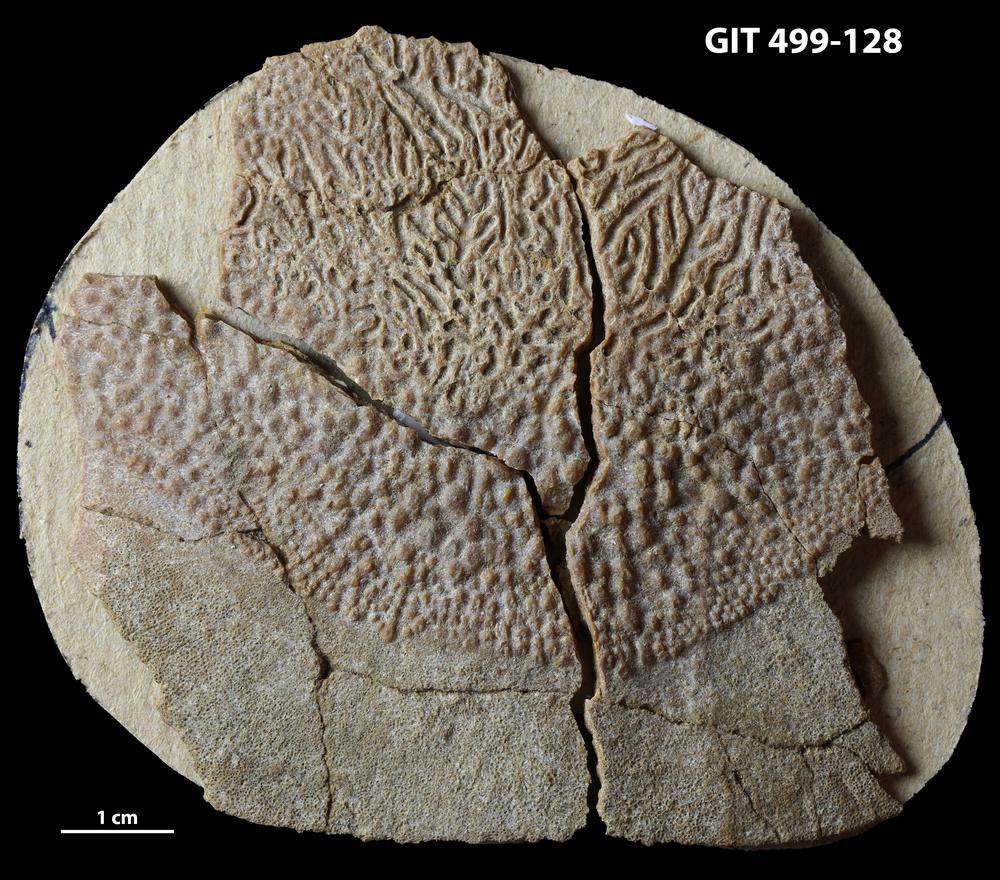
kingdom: Animalia
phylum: Chordata
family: Holoptychiidae
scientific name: Holoptychiidae
